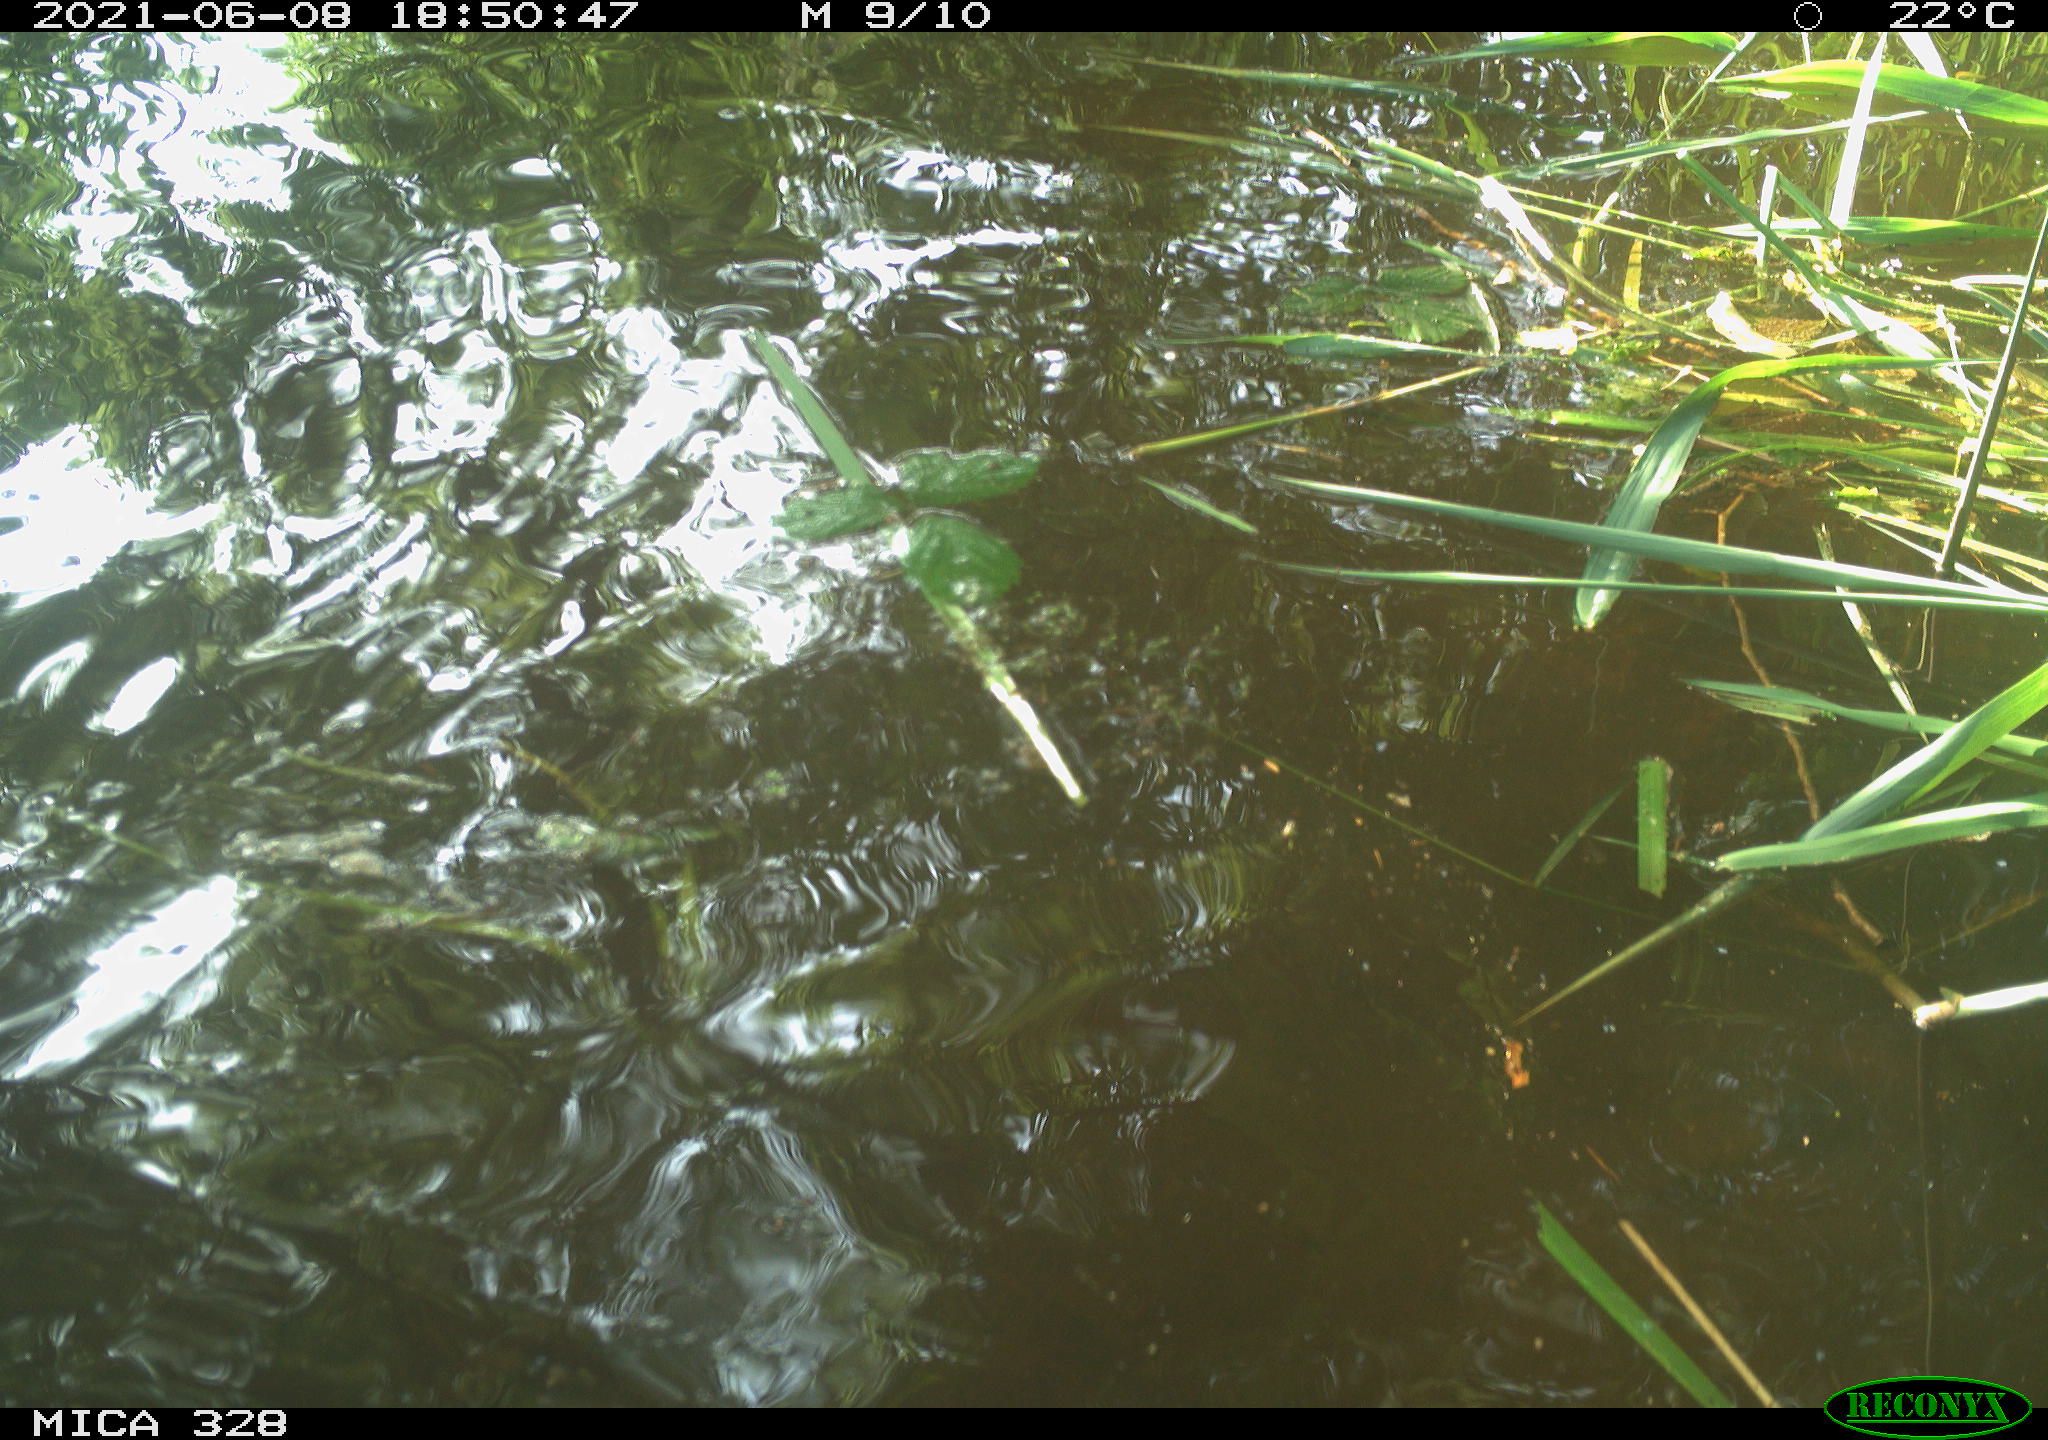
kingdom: Animalia
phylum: Chordata
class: Aves
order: Anseriformes
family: Anatidae
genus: Aix
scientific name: Aix galericulata
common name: Mandarin duck
